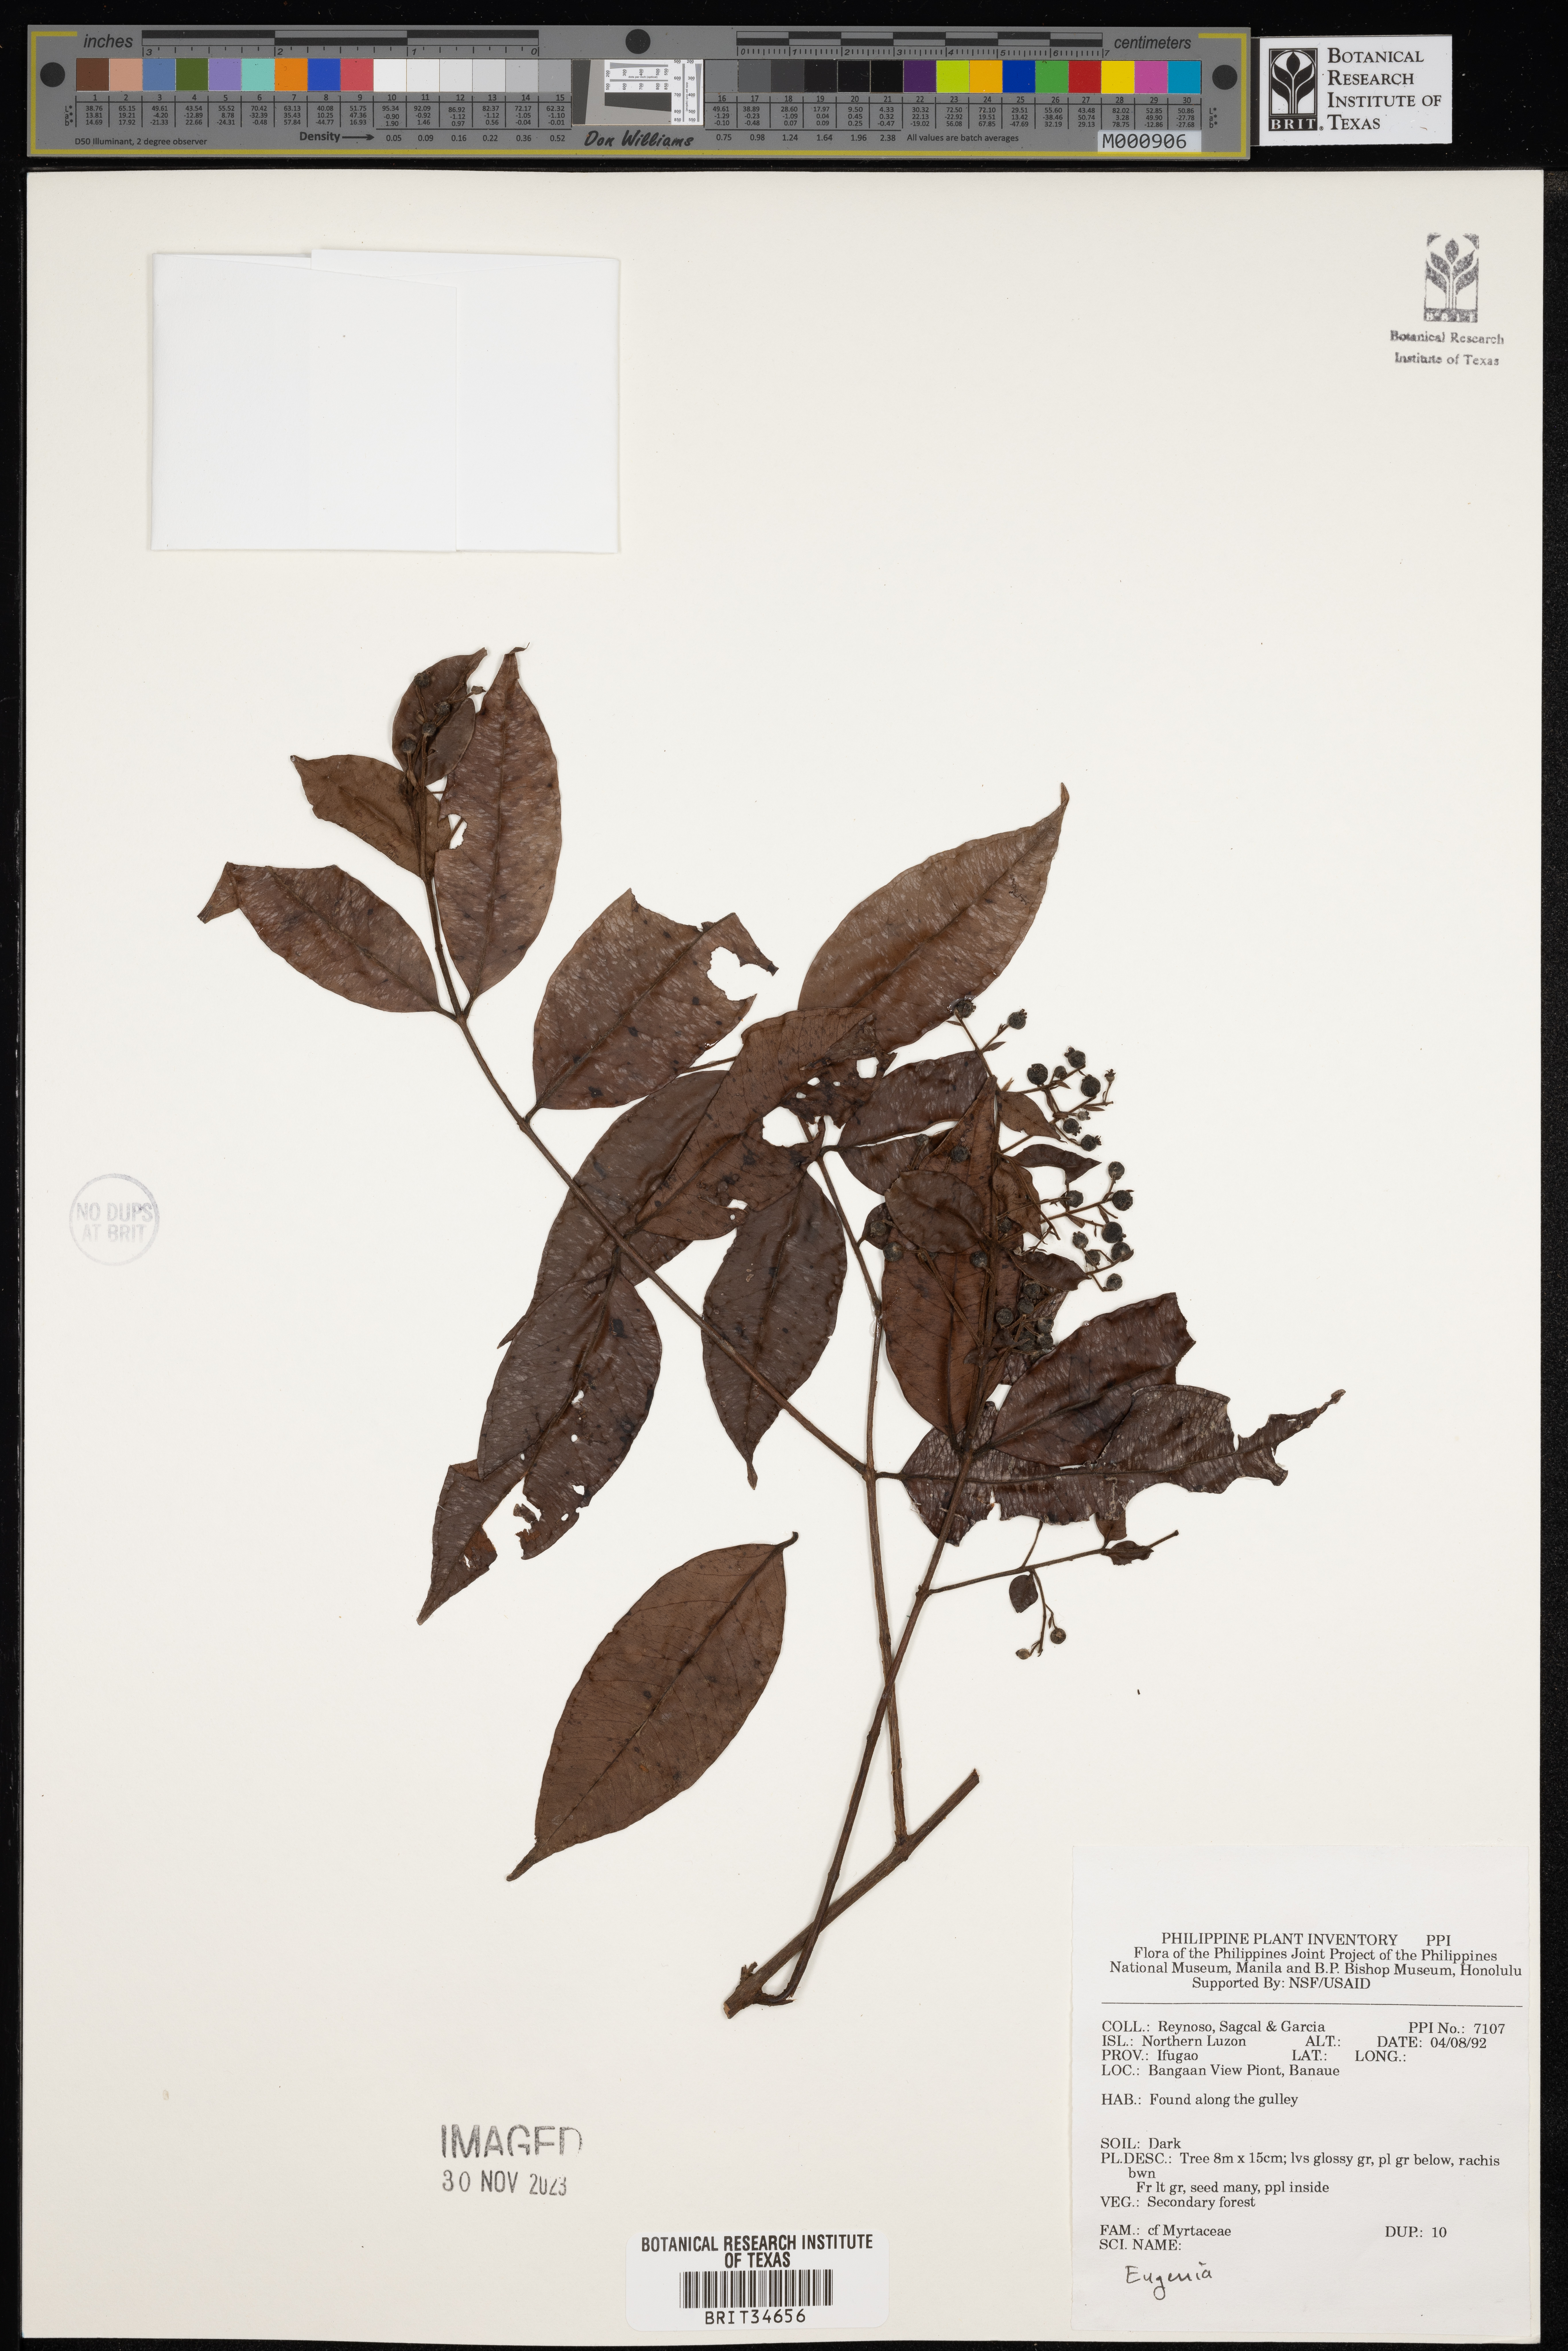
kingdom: Plantae
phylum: Tracheophyta
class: Magnoliopsida
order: Myrtales
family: Myrtaceae
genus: Eugenia
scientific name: Eugenia
